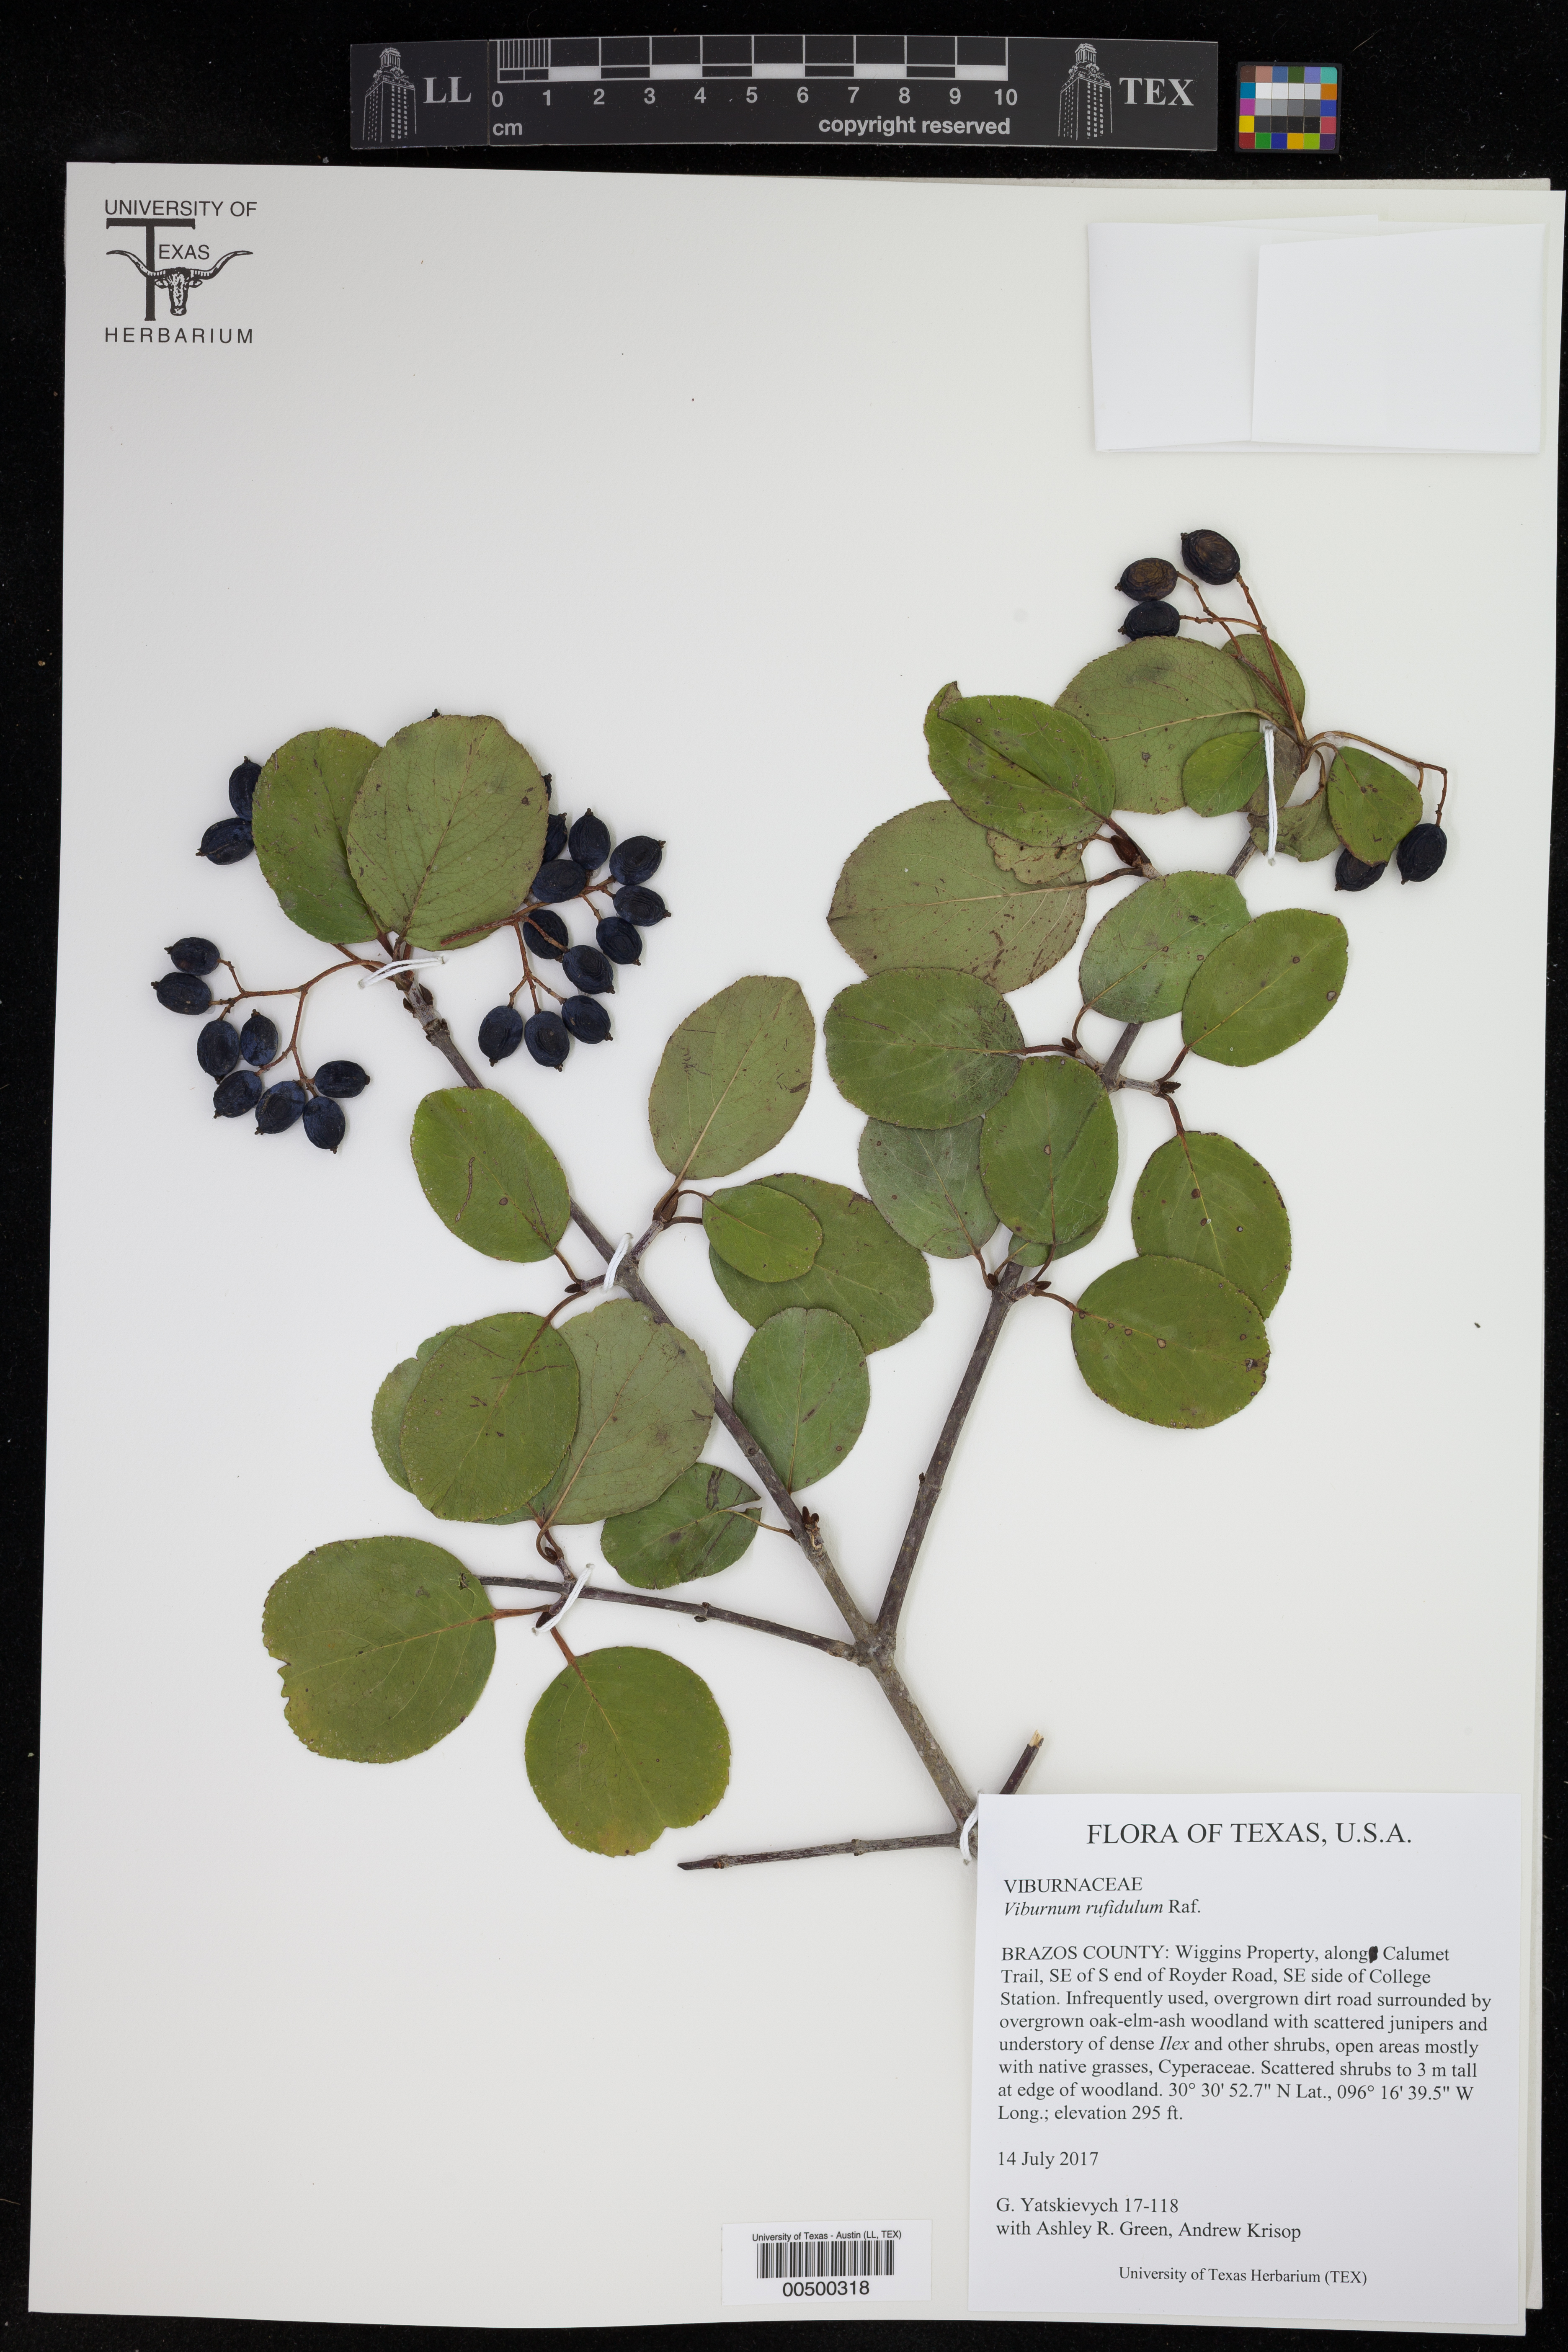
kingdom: Plantae
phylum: Tracheophyta
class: Magnoliopsida
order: Dipsacales
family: Viburnaceae
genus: Viburnum
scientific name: Viburnum rufidulum
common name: Blue haw
